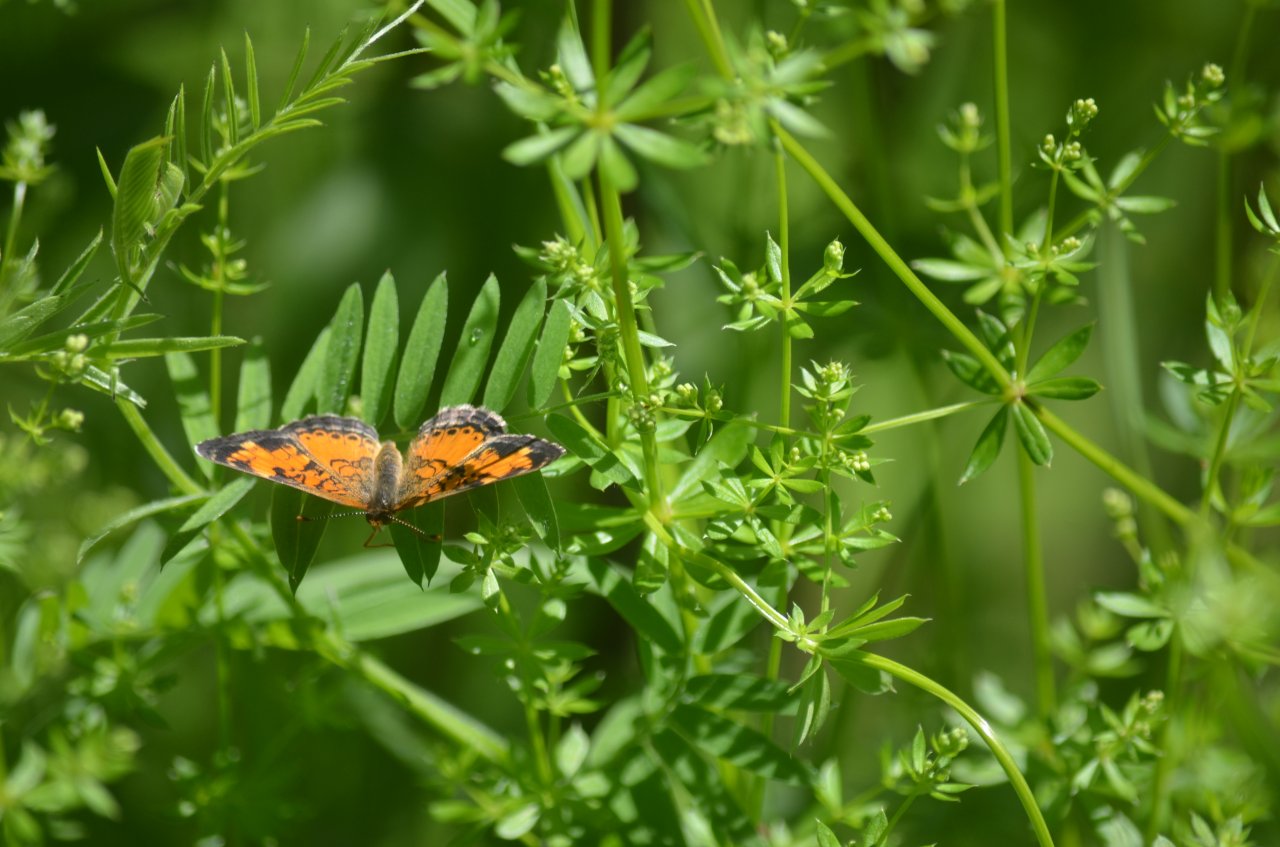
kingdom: Animalia
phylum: Arthropoda
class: Insecta
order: Lepidoptera
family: Nymphalidae
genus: Phyciodes
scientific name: Phyciodes tharos
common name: Northern Crescent
